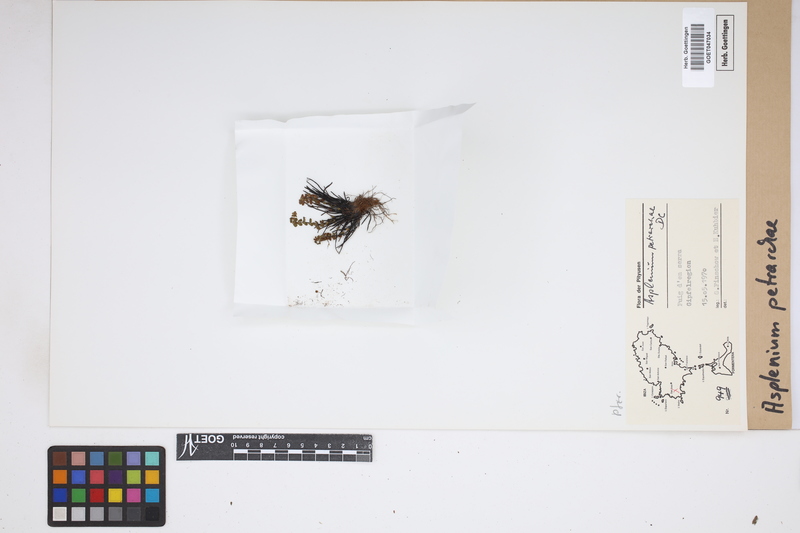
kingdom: Plantae
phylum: Tracheophyta
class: Polypodiopsida
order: Polypodiales
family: Aspleniaceae
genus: Asplenium
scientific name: Asplenium petrarchae
